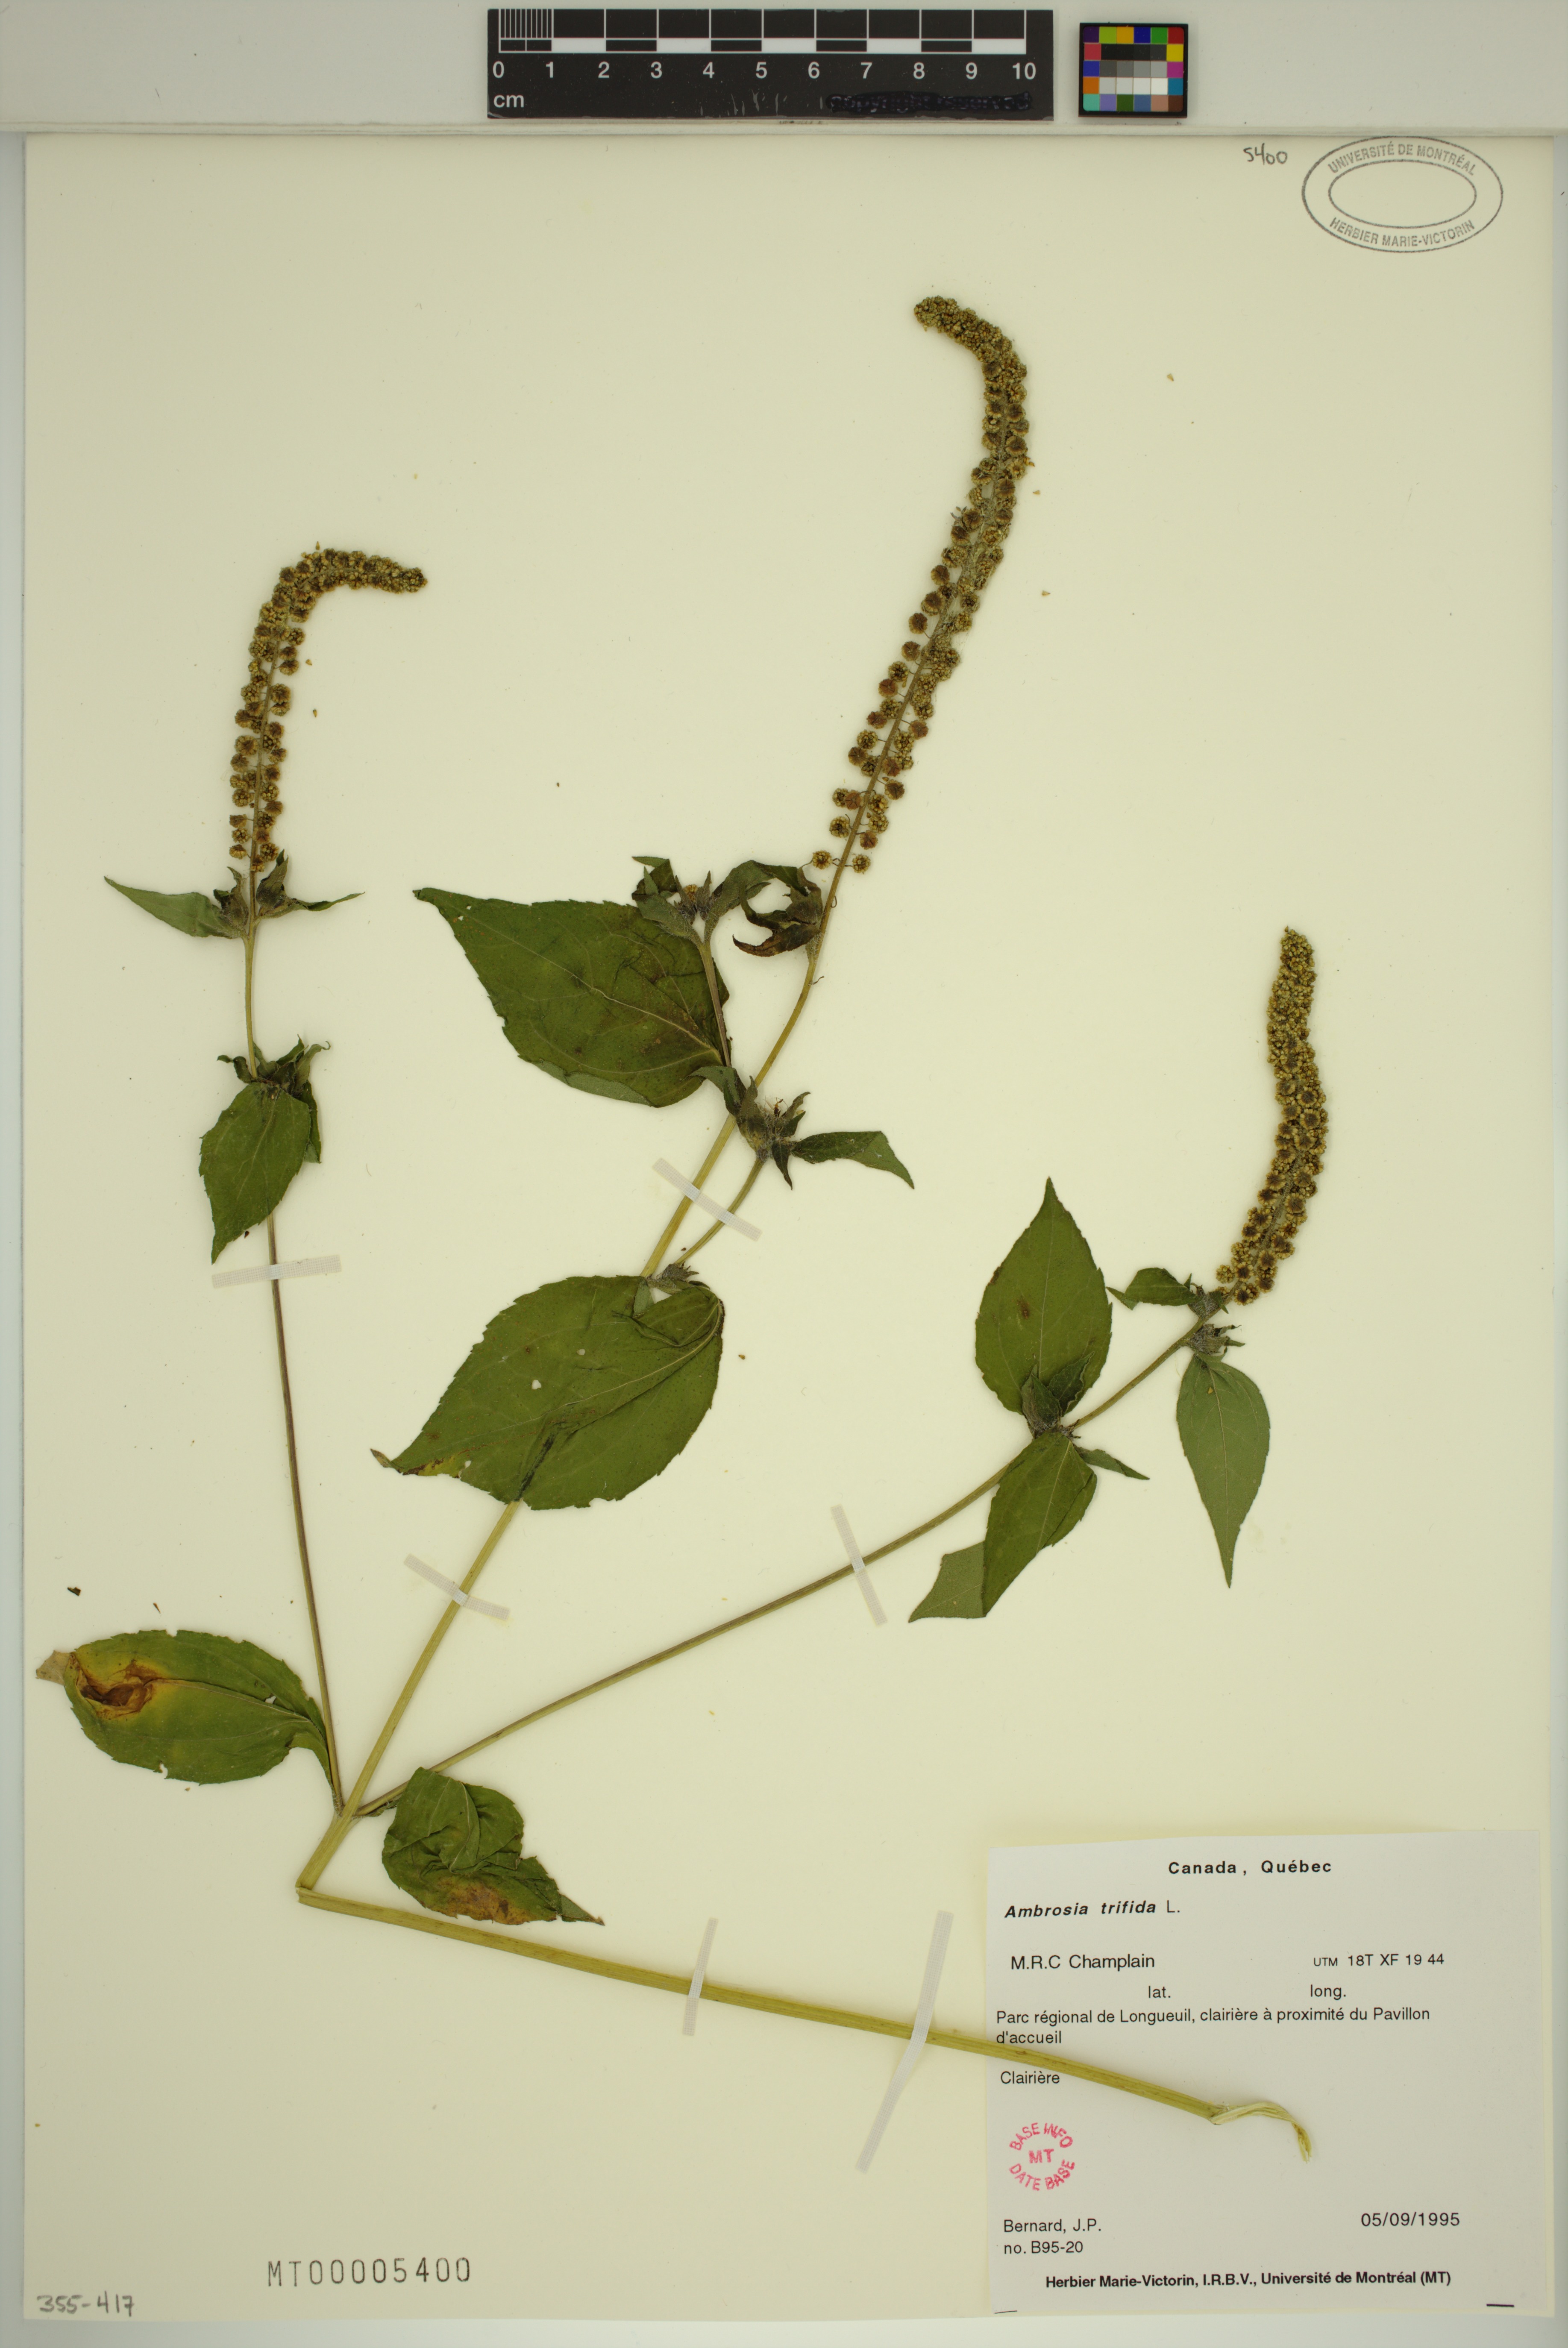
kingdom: Plantae
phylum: Tracheophyta
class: Magnoliopsida
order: Asterales
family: Asteraceae
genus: Ambrosia
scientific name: Ambrosia trifida
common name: Giant ragweed
